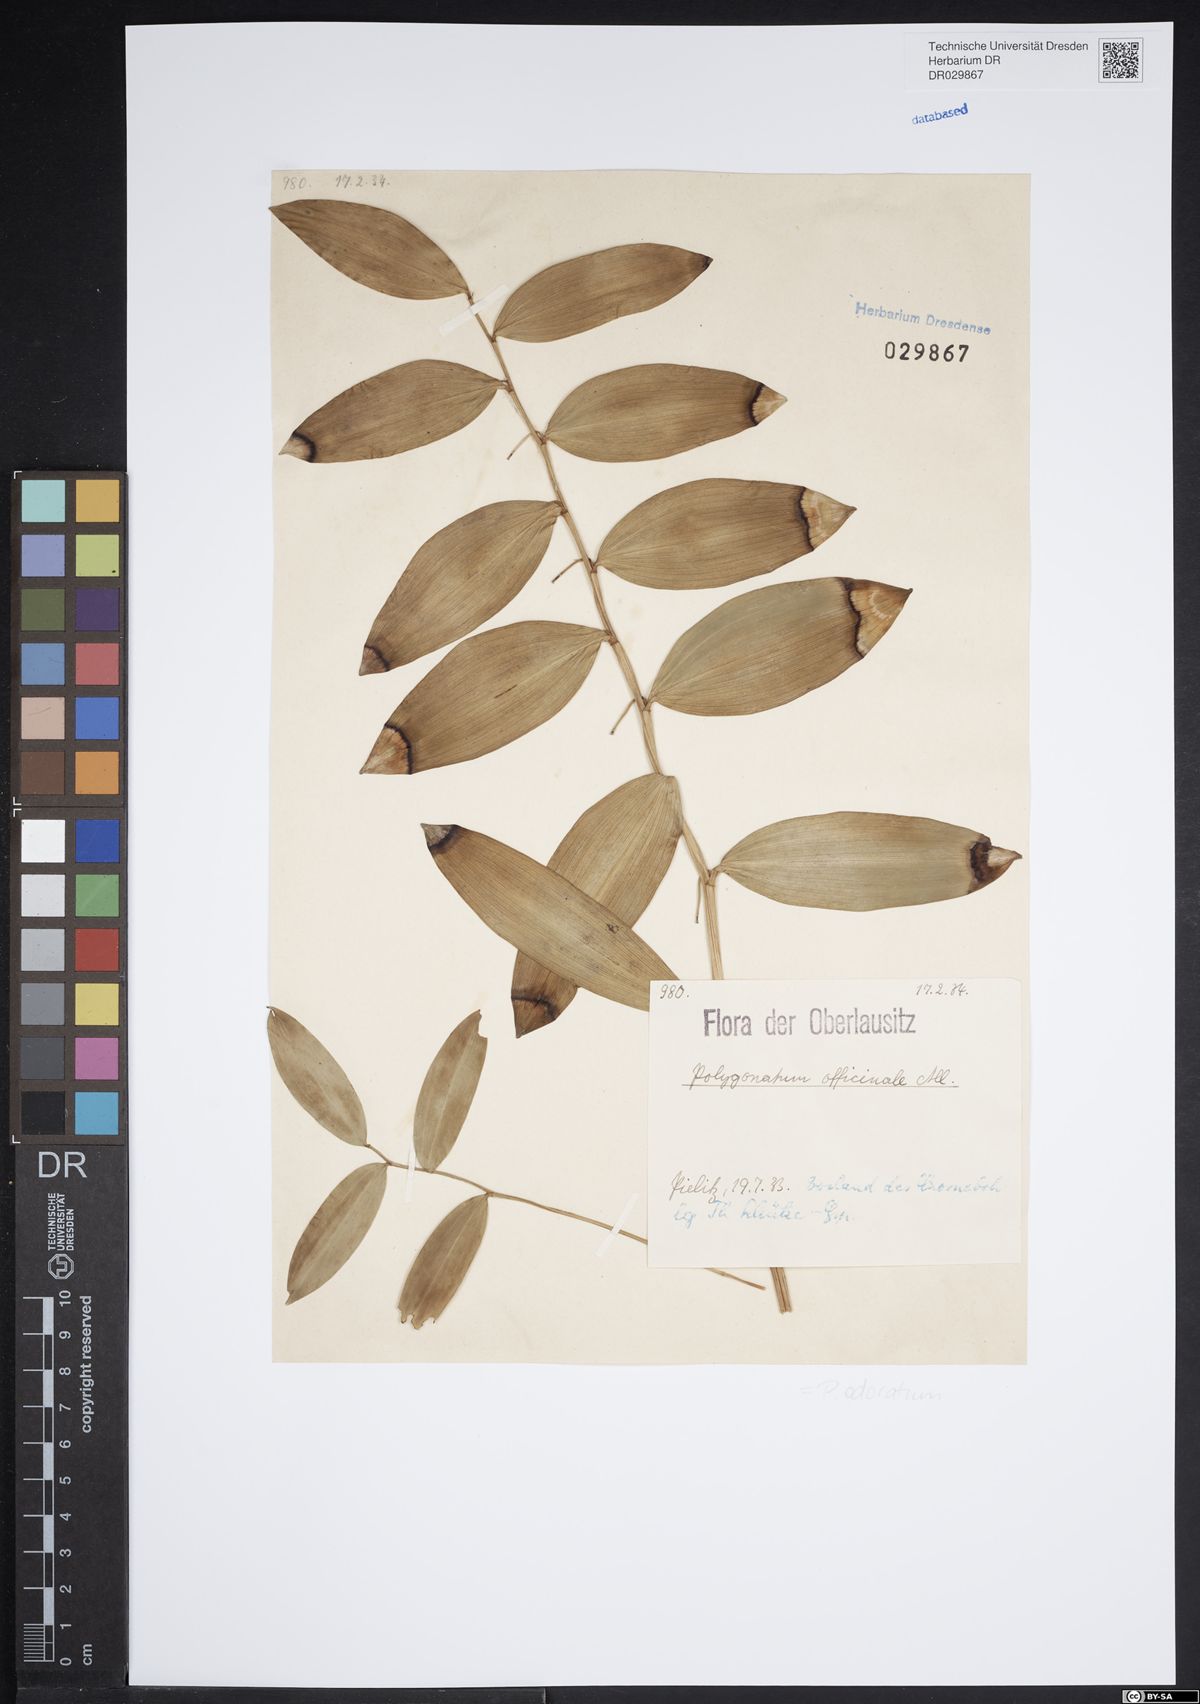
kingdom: Plantae
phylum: Tracheophyta
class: Liliopsida
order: Asparagales
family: Asparagaceae
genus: Polygonatum
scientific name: Polygonatum odoratum
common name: Angular solomon's-seal
